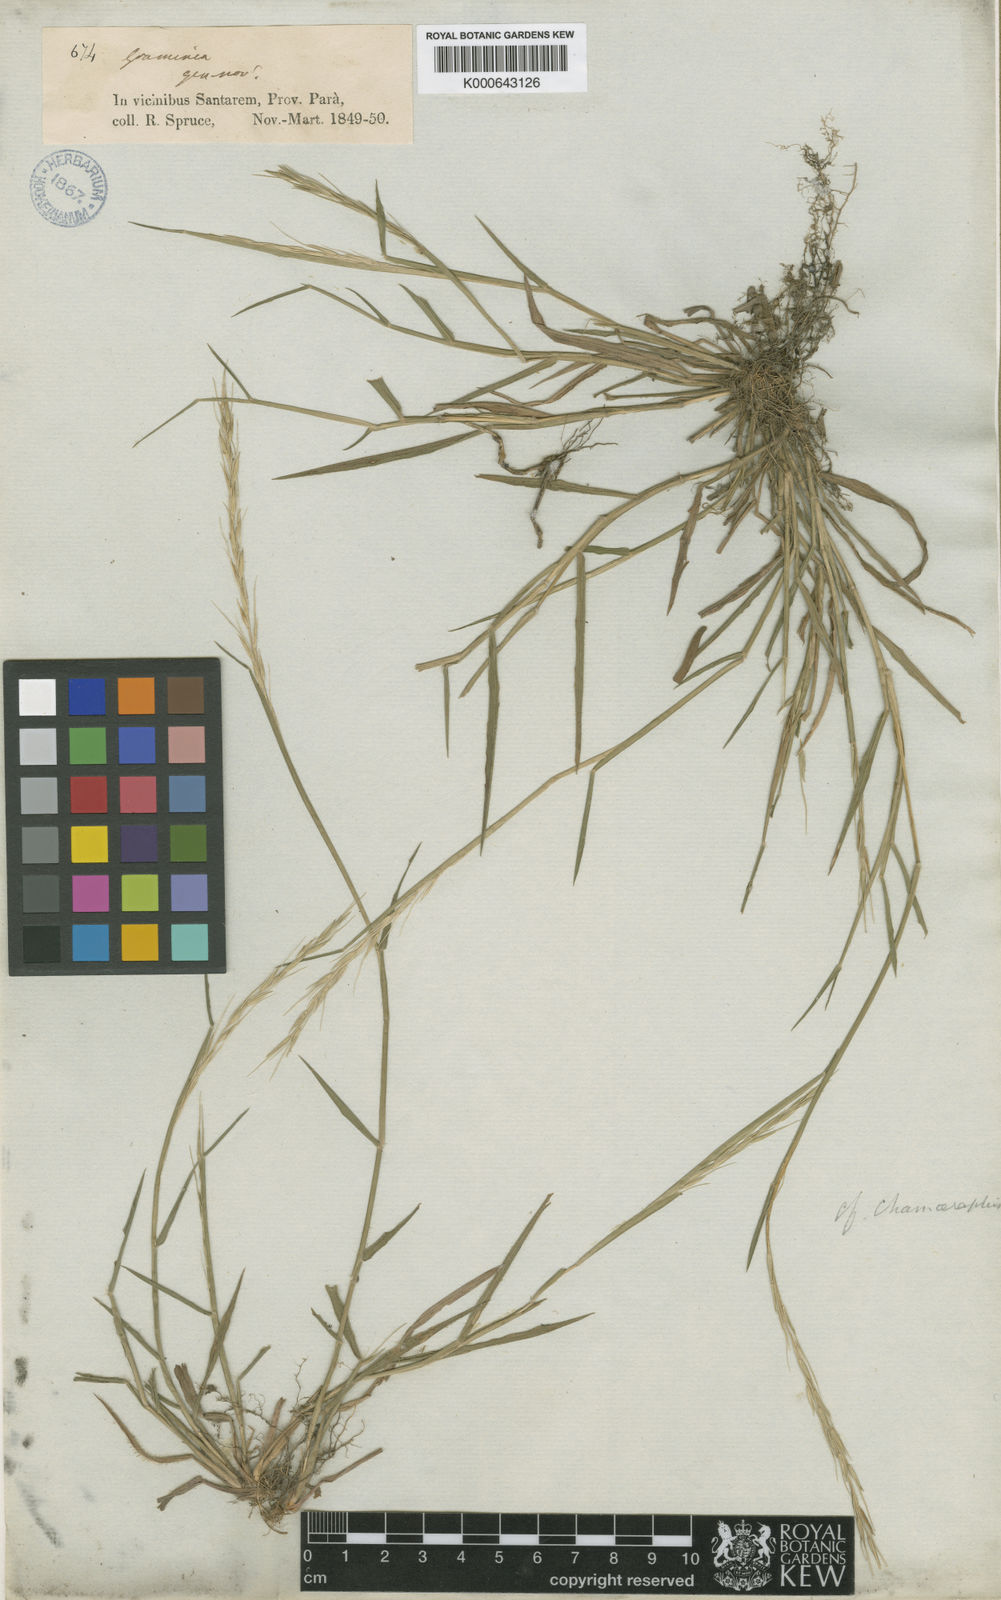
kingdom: Plantae
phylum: Tracheophyta
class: Liliopsida
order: Poales
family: Poaceae
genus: Paratheria
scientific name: Paratheria prostrata
